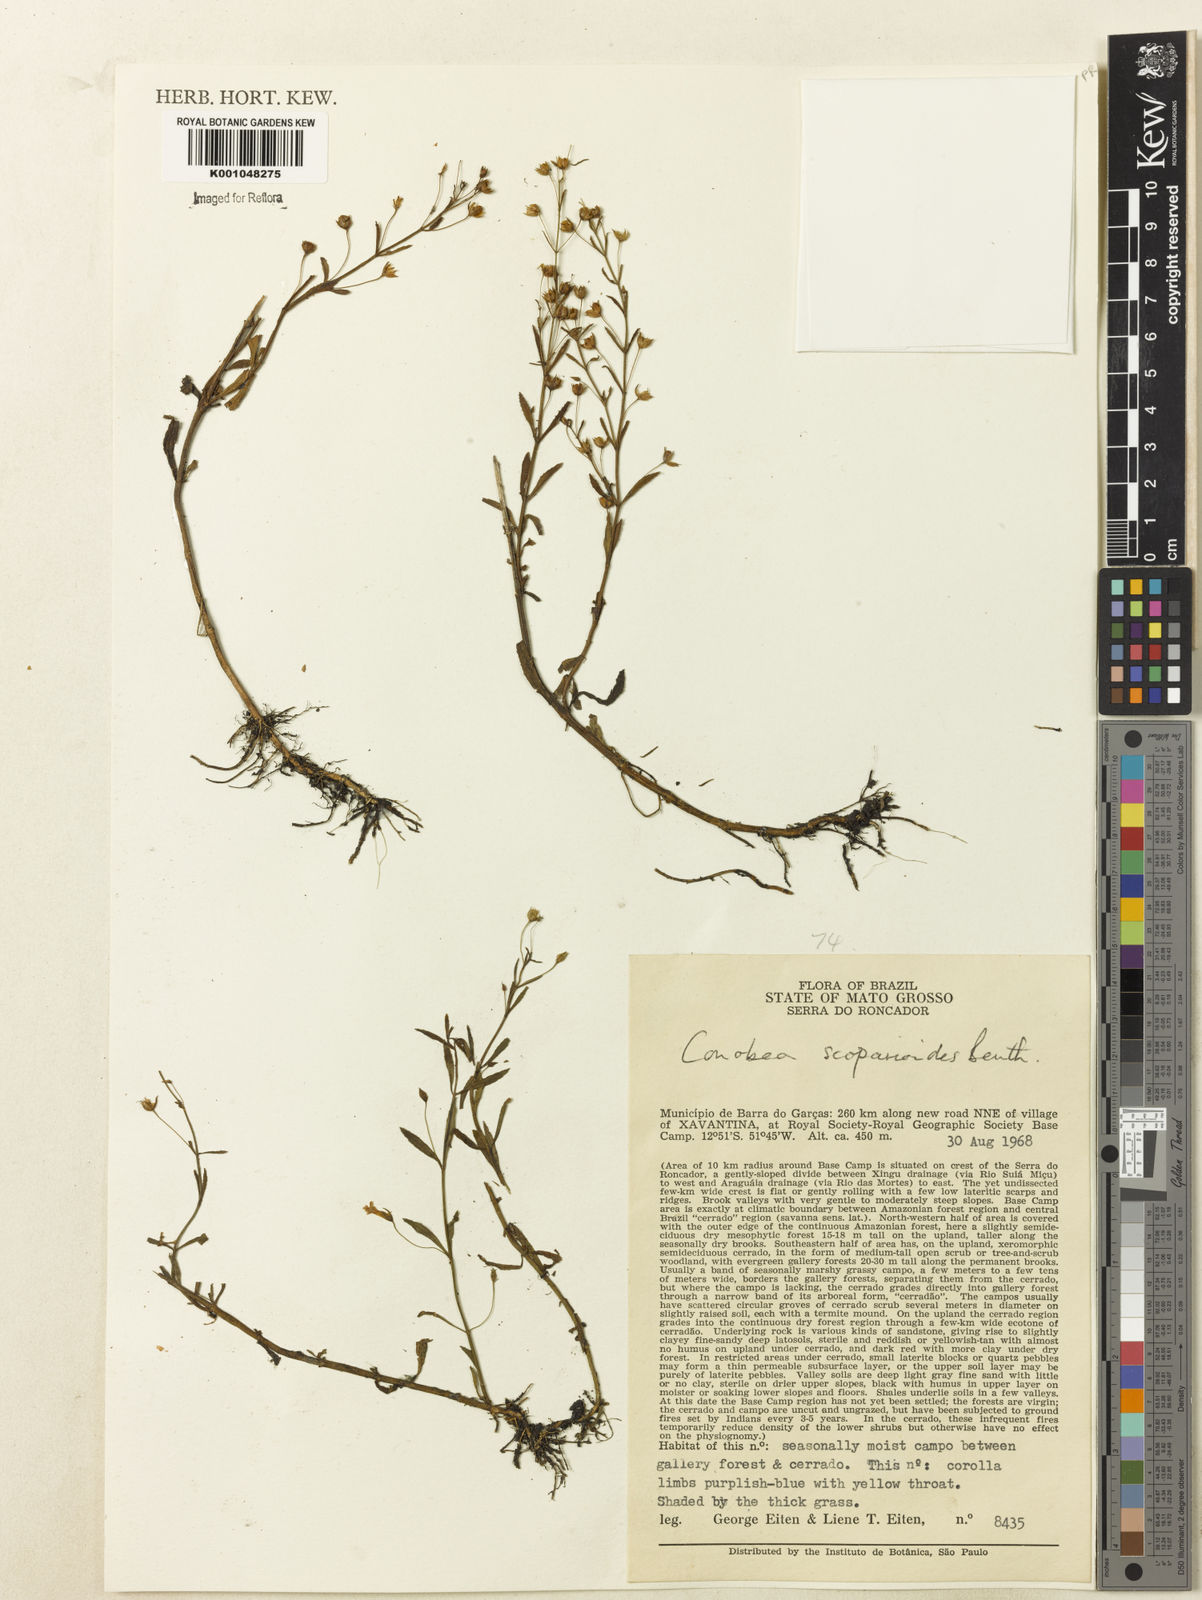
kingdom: Plantae
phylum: Tracheophyta
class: Magnoliopsida
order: Lamiales
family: Plantaginaceae
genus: Conobea
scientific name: Conobea scoparioides
